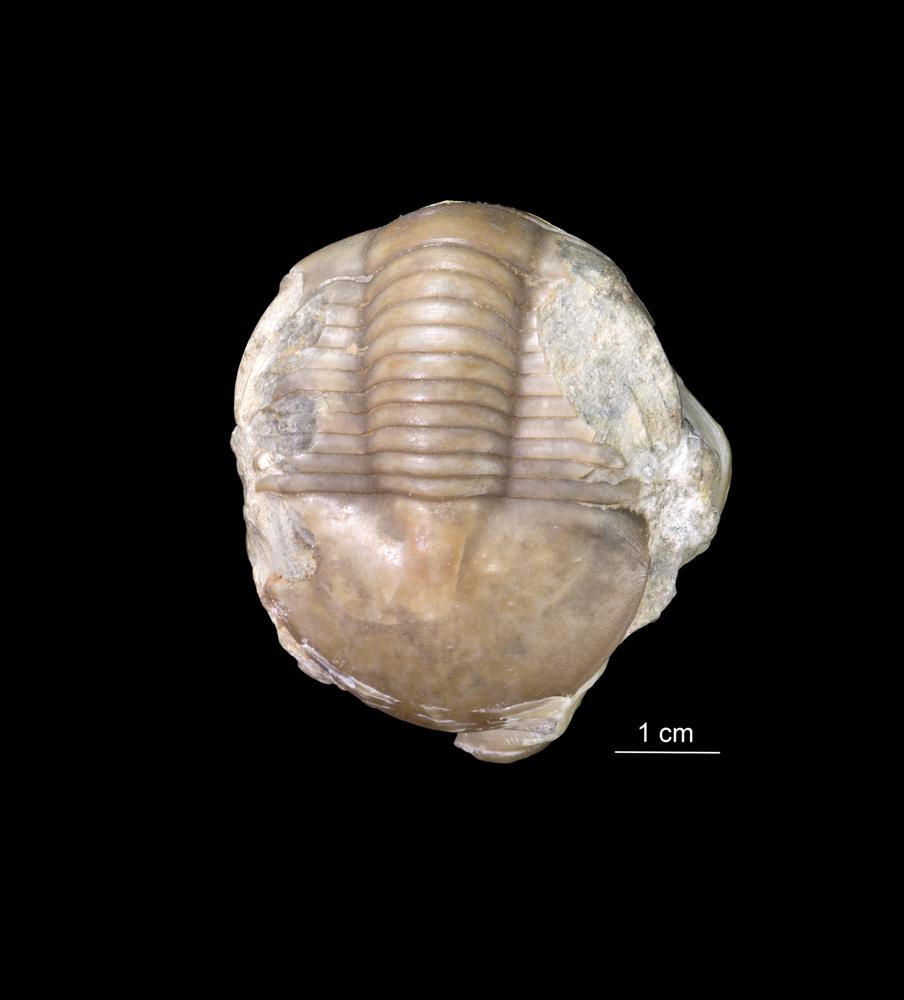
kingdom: Animalia
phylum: Arthropoda
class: Trilobita
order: Corynexochida
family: Illaenidae
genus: Illaenus
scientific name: Illaenus
